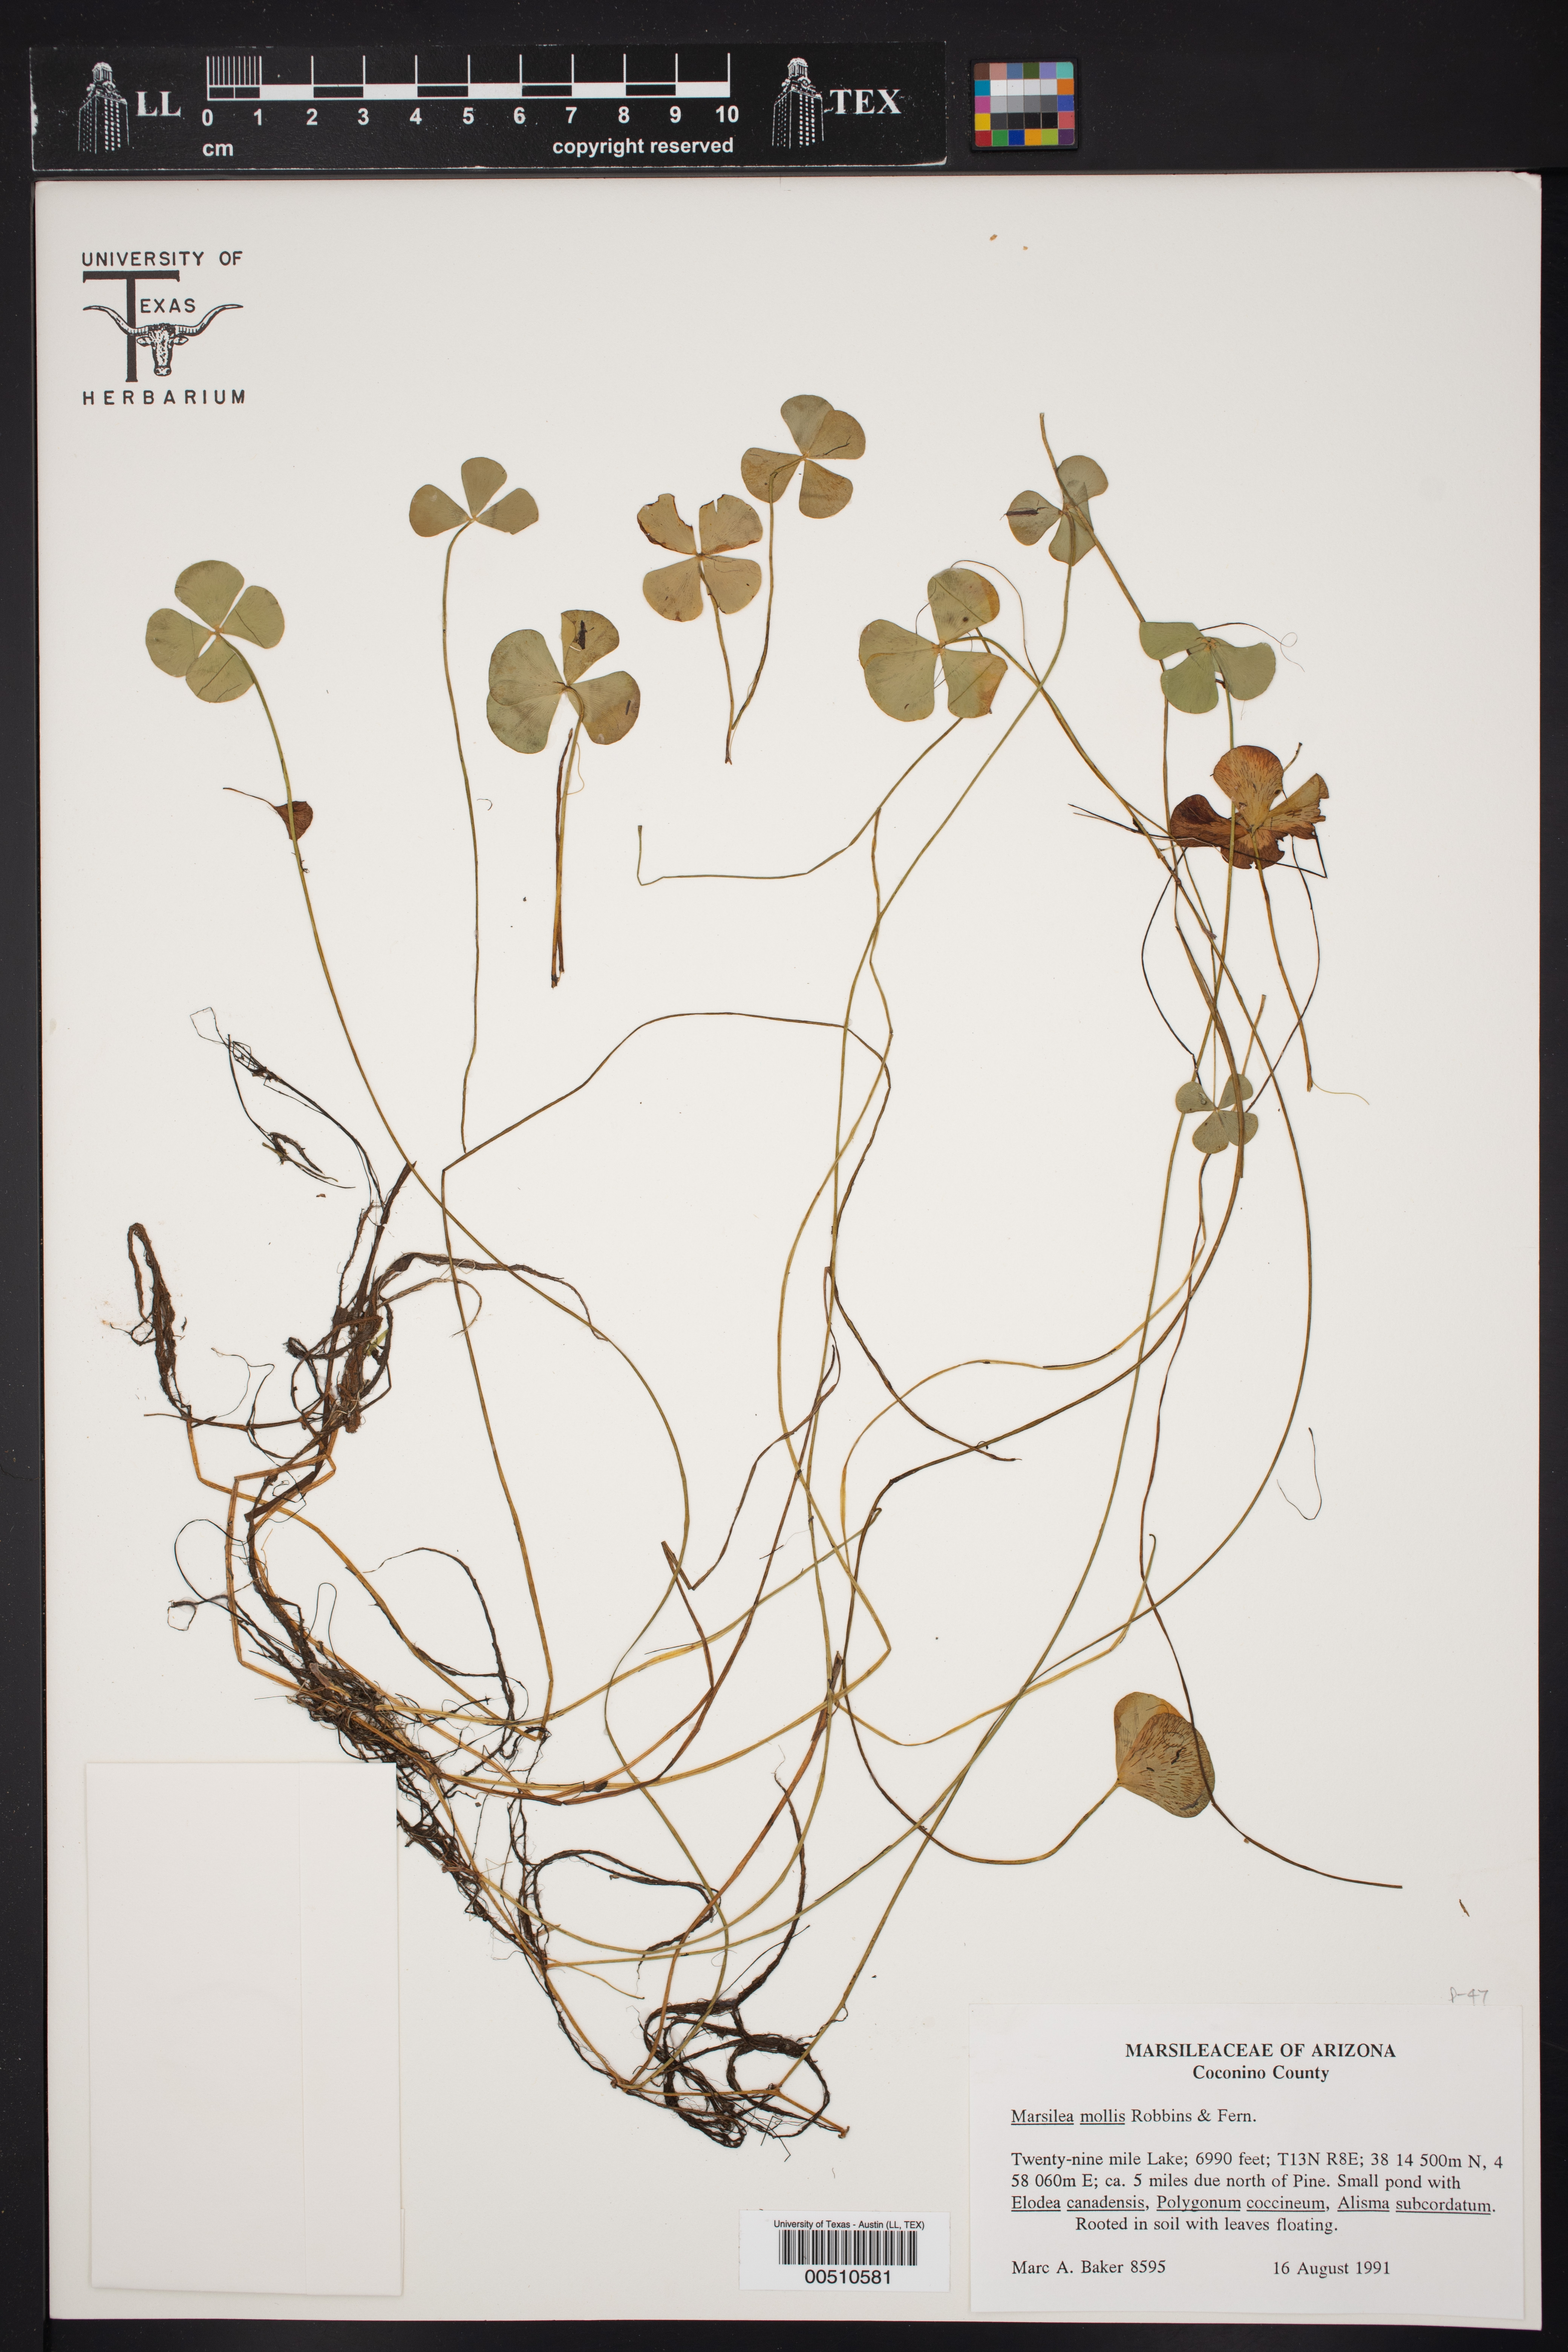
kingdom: Plantae
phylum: Tracheophyta
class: Polypodiopsida
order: Salviniales
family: Marsileaceae
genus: Marsilea
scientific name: Marsilea mollis
